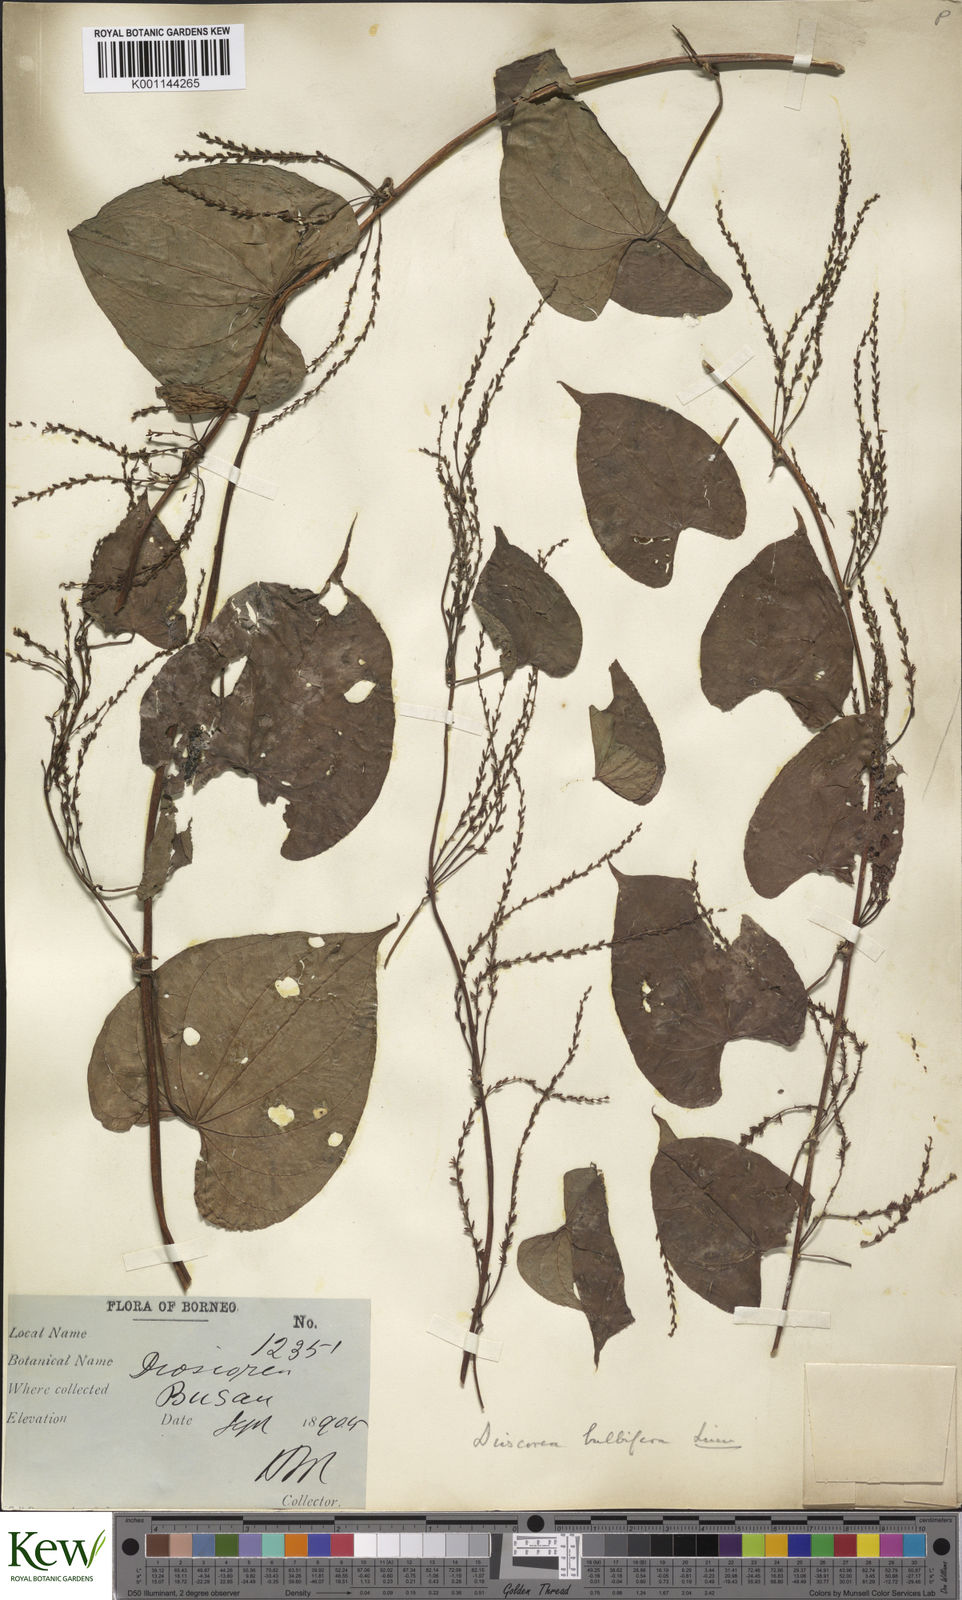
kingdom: Plantae
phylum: Tracheophyta
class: Liliopsida
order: Dioscoreales
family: Dioscoreaceae
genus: Dioscorea
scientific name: Dioscorea bulbifera
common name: Air yam
